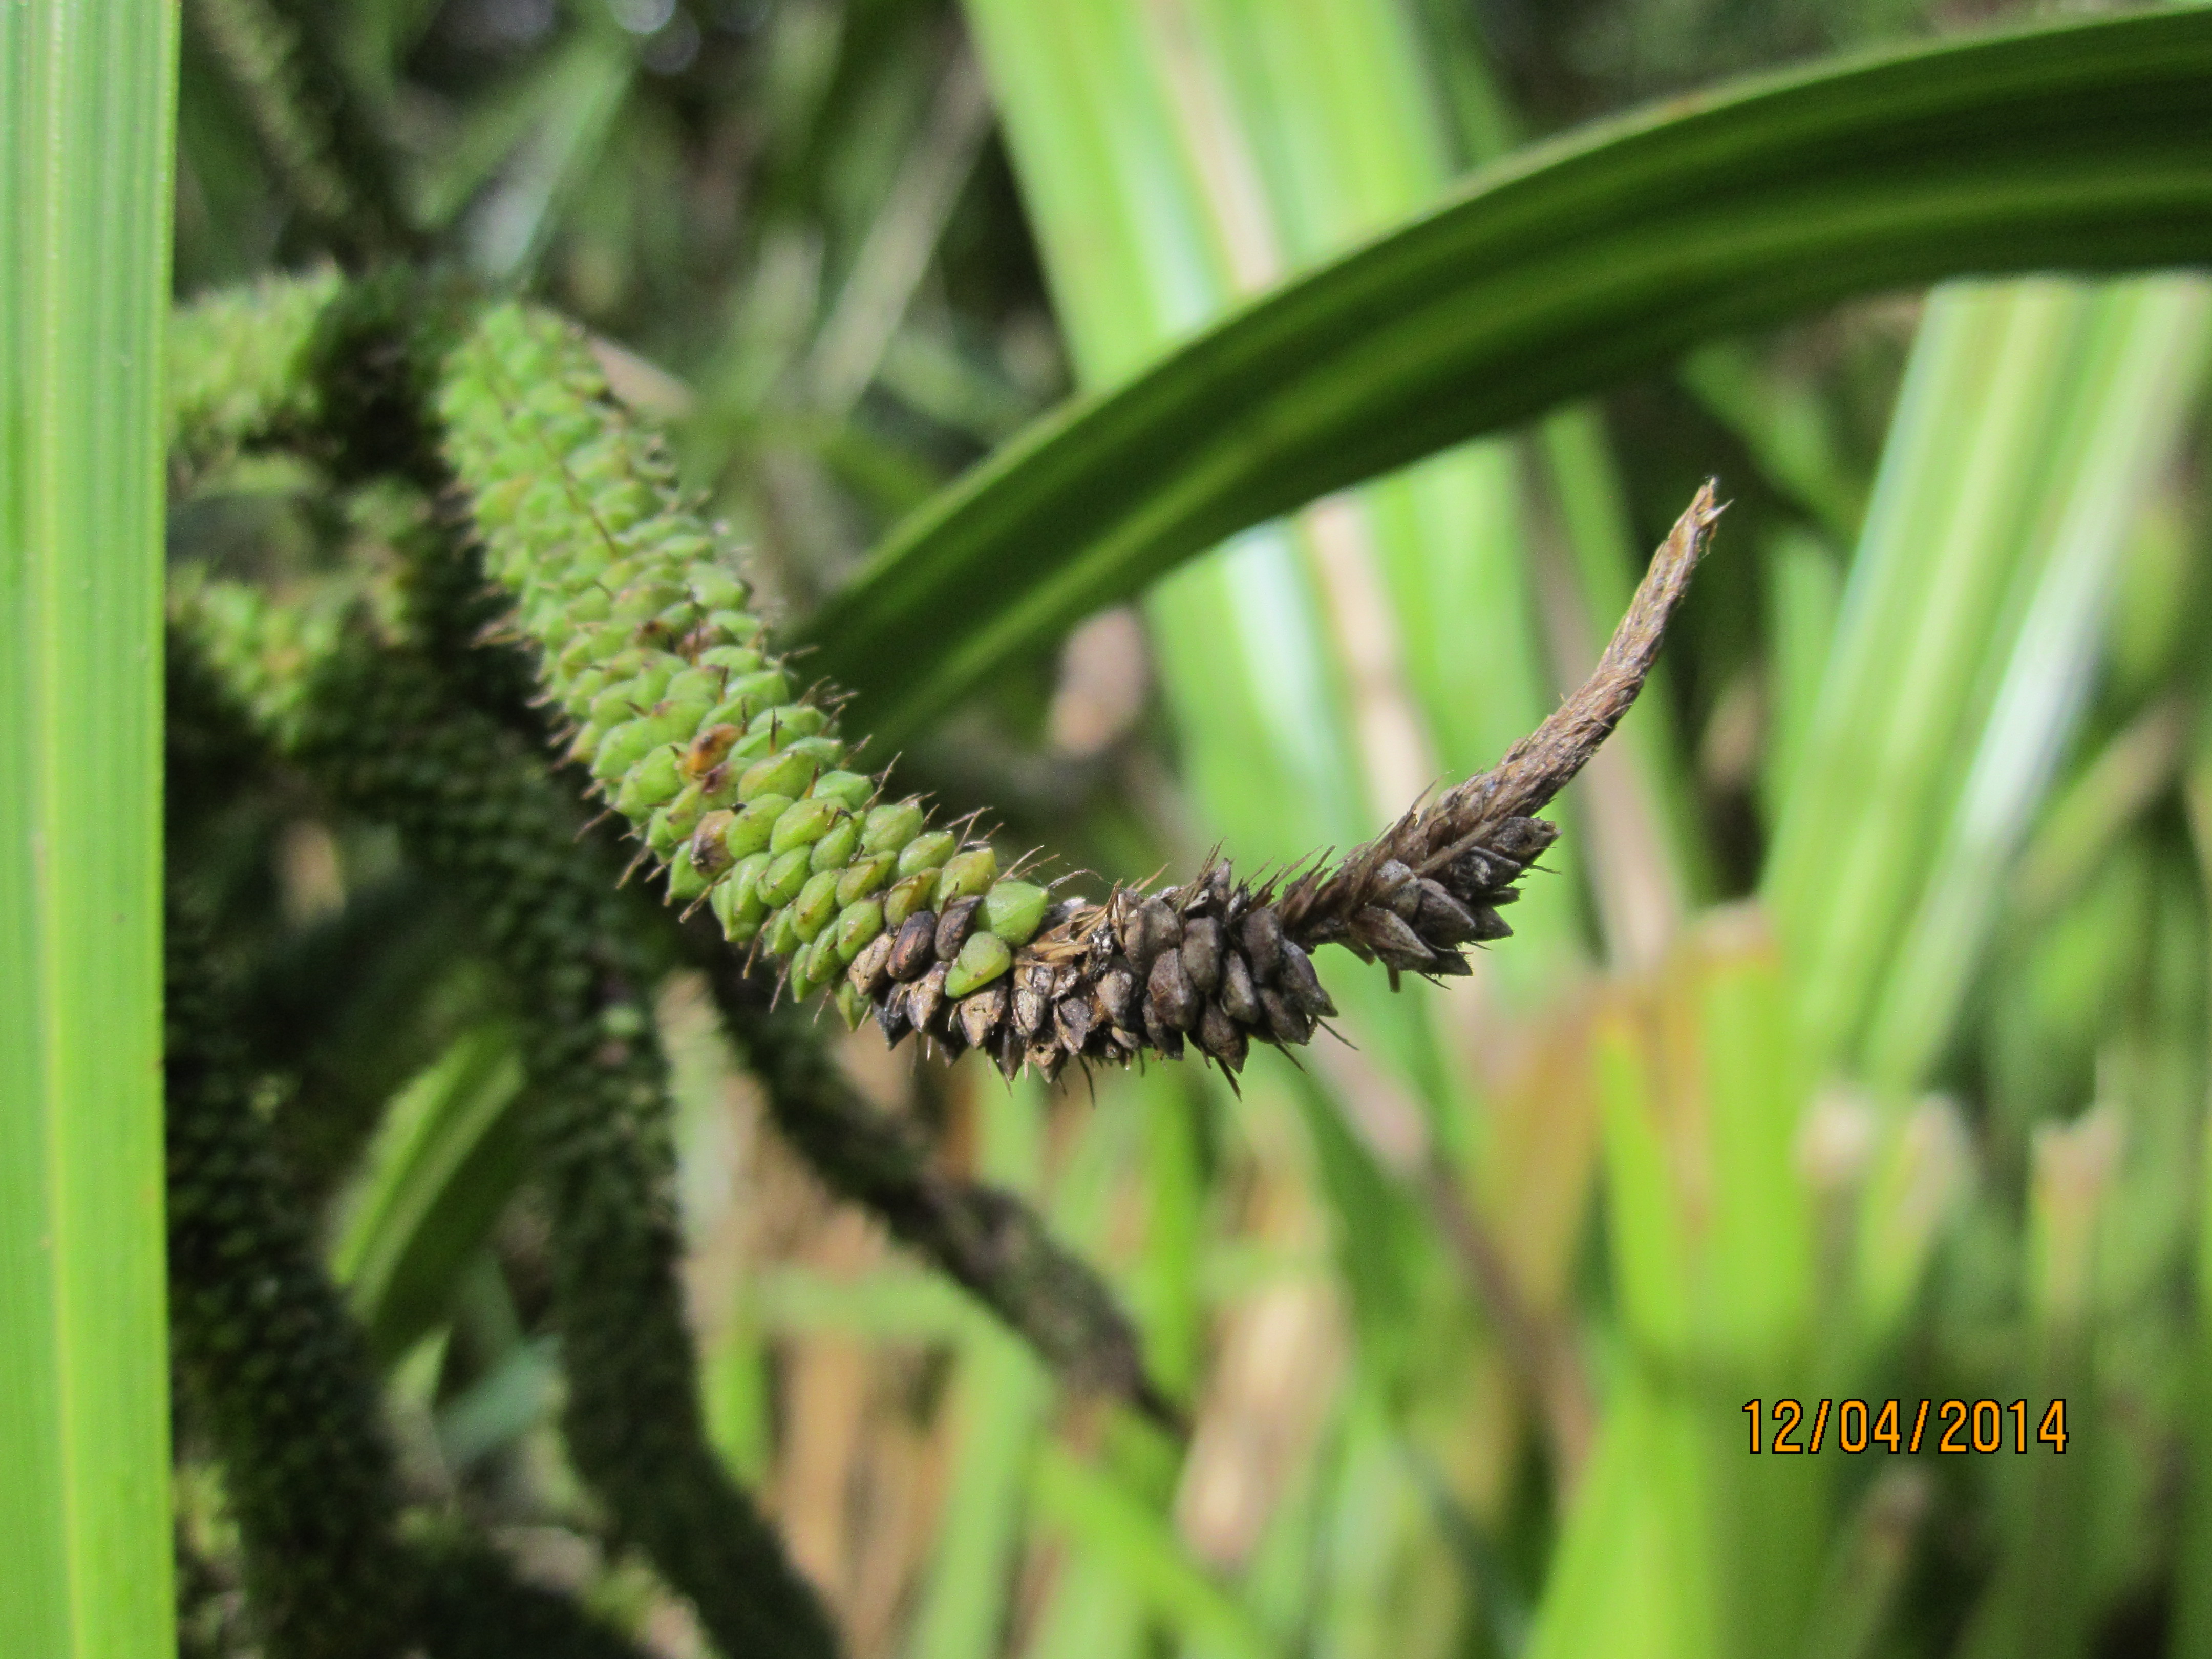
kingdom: Plantae
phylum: Tracheophyta
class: Liliopsida
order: Poales
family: Cyperaceae
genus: Carex
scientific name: Carex geminata
